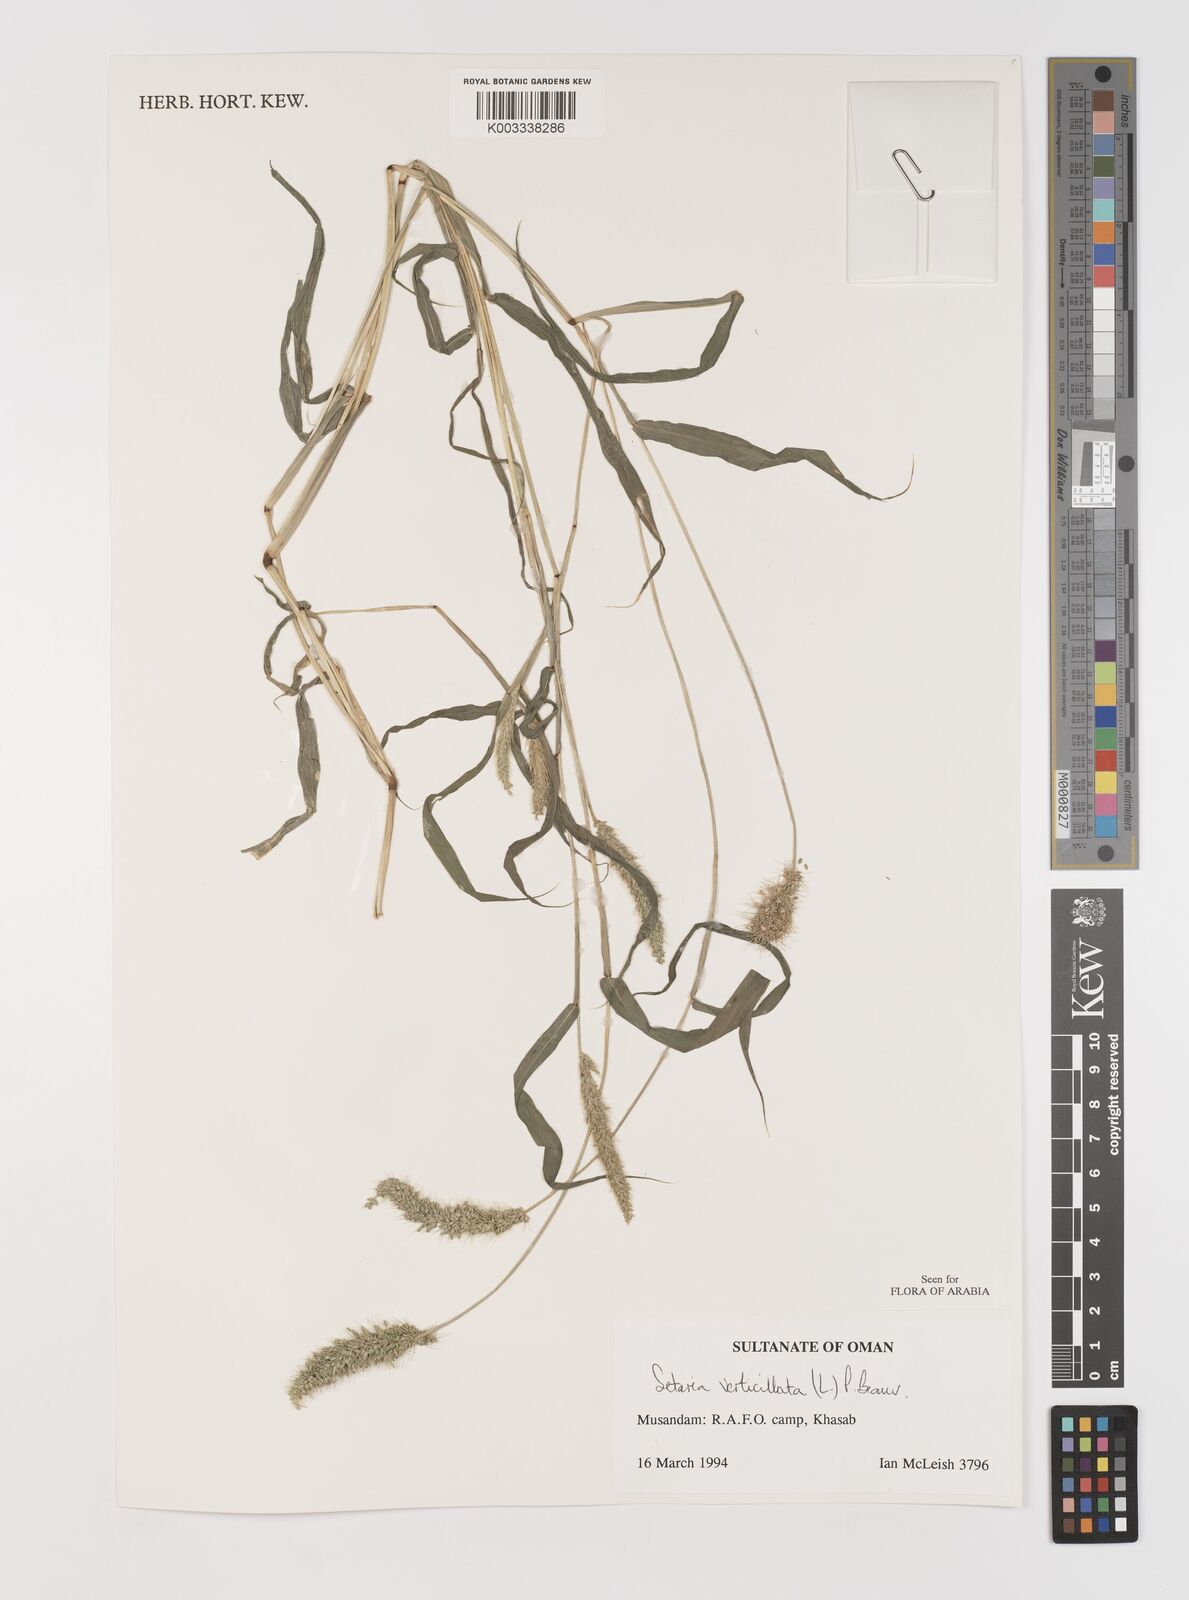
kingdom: Plantae
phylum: Tracheophyta
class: Liliopsida
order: Poales
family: Poaceae
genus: Setaria
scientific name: Setaria verticillata
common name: Hooked bristlegrass
